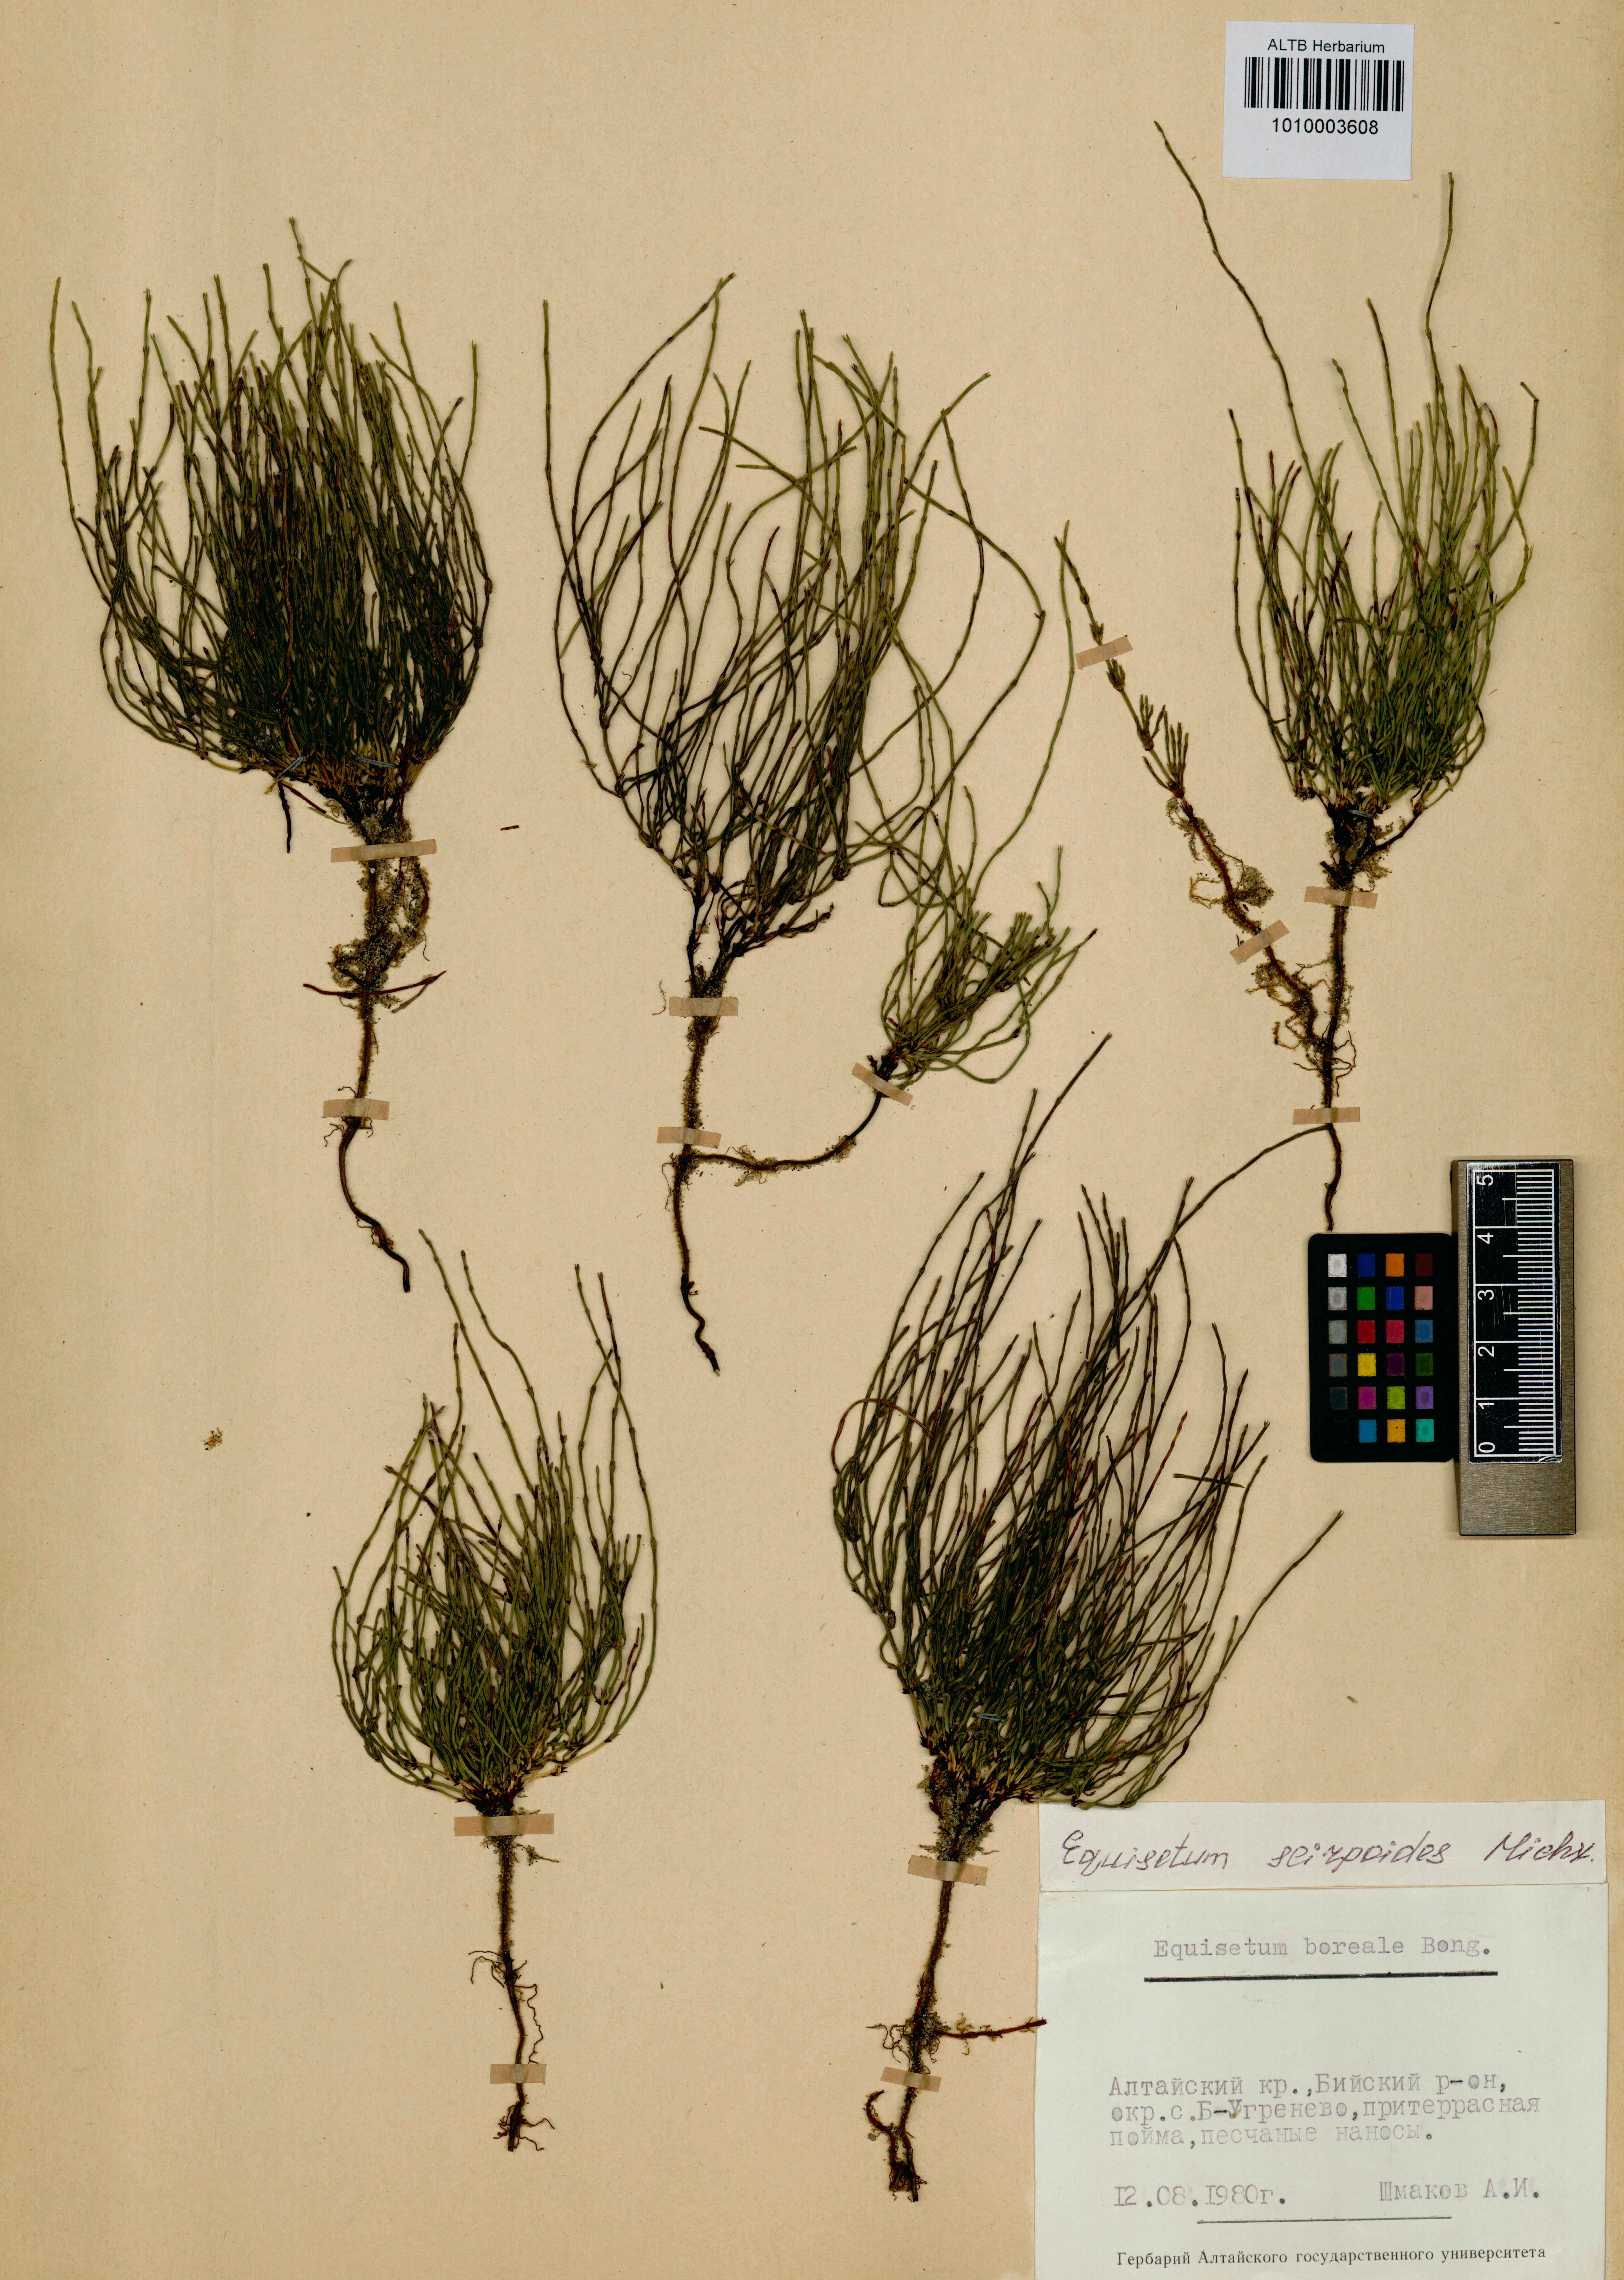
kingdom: Plantae
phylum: Tracheophyta
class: Polypodiopsida
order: Equisetales
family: Equisetaceae
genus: Equisetum
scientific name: Equisetum scirpoides
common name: Delicate horsetail
